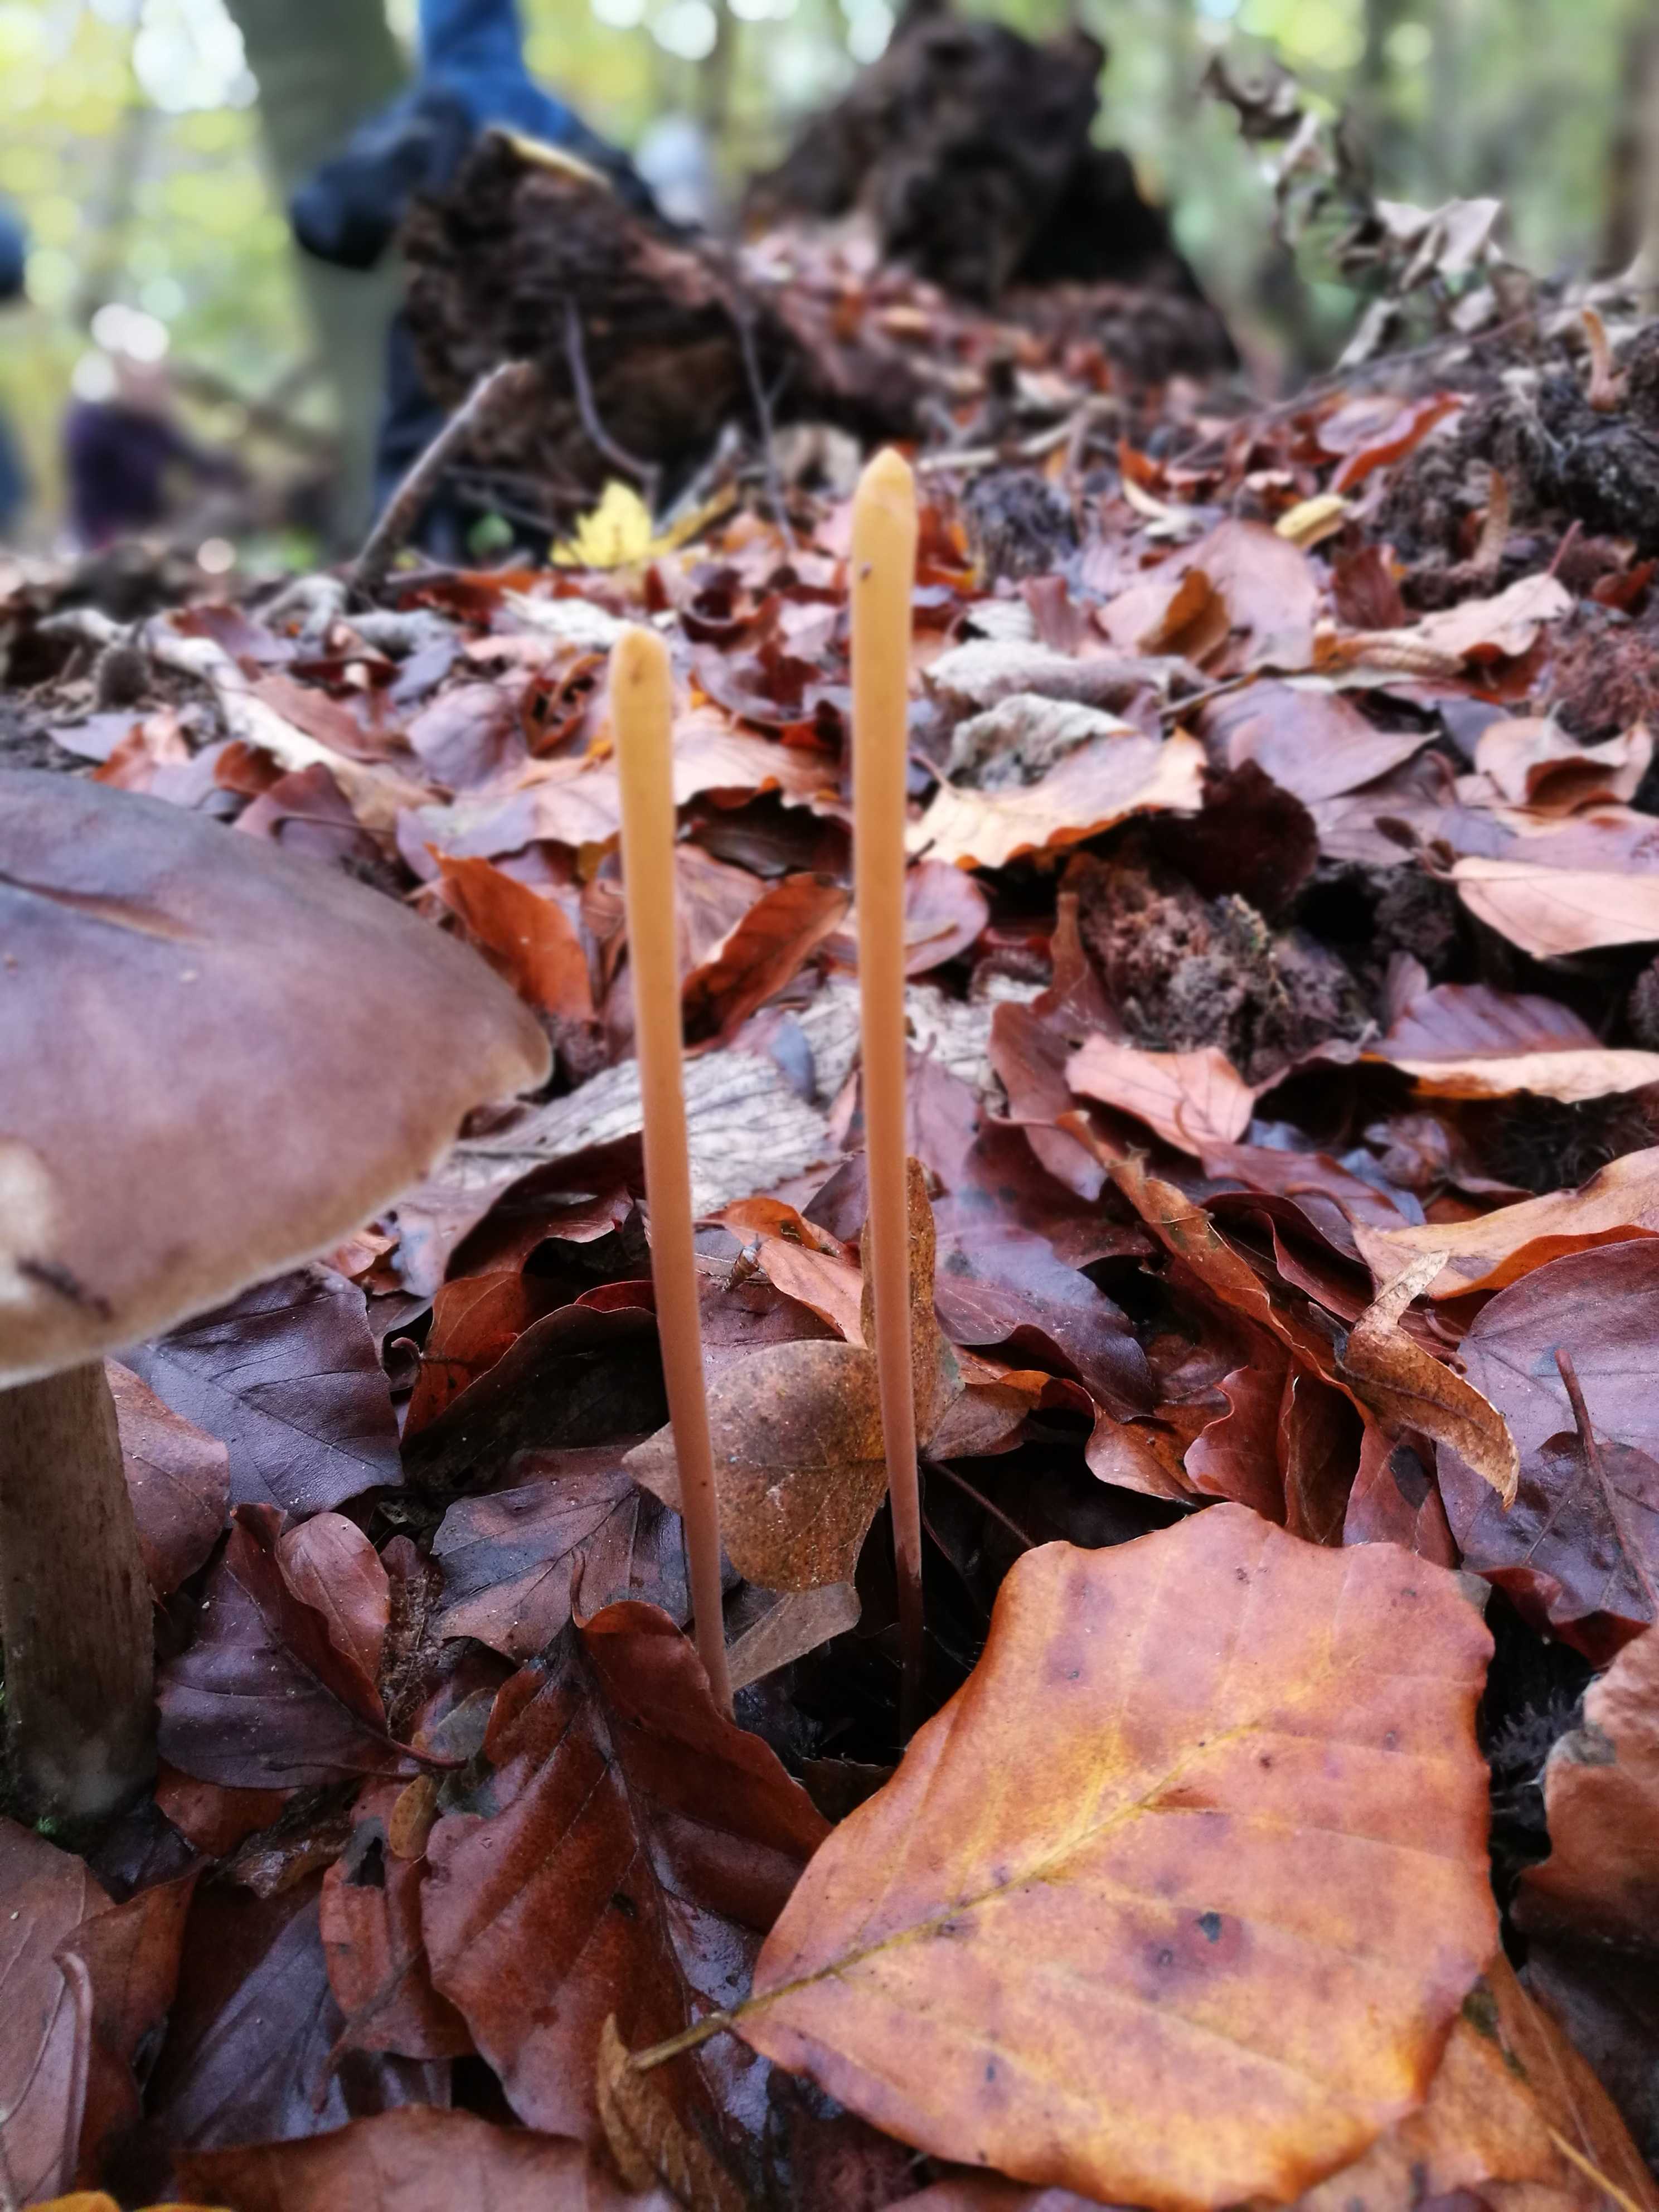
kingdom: Fungi
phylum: Basidiomycota
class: Agaricomycetes
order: Agaricales
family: Typhulaceae
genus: Typhula
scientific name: Typhula fistulosa
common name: pibet rørkølle
